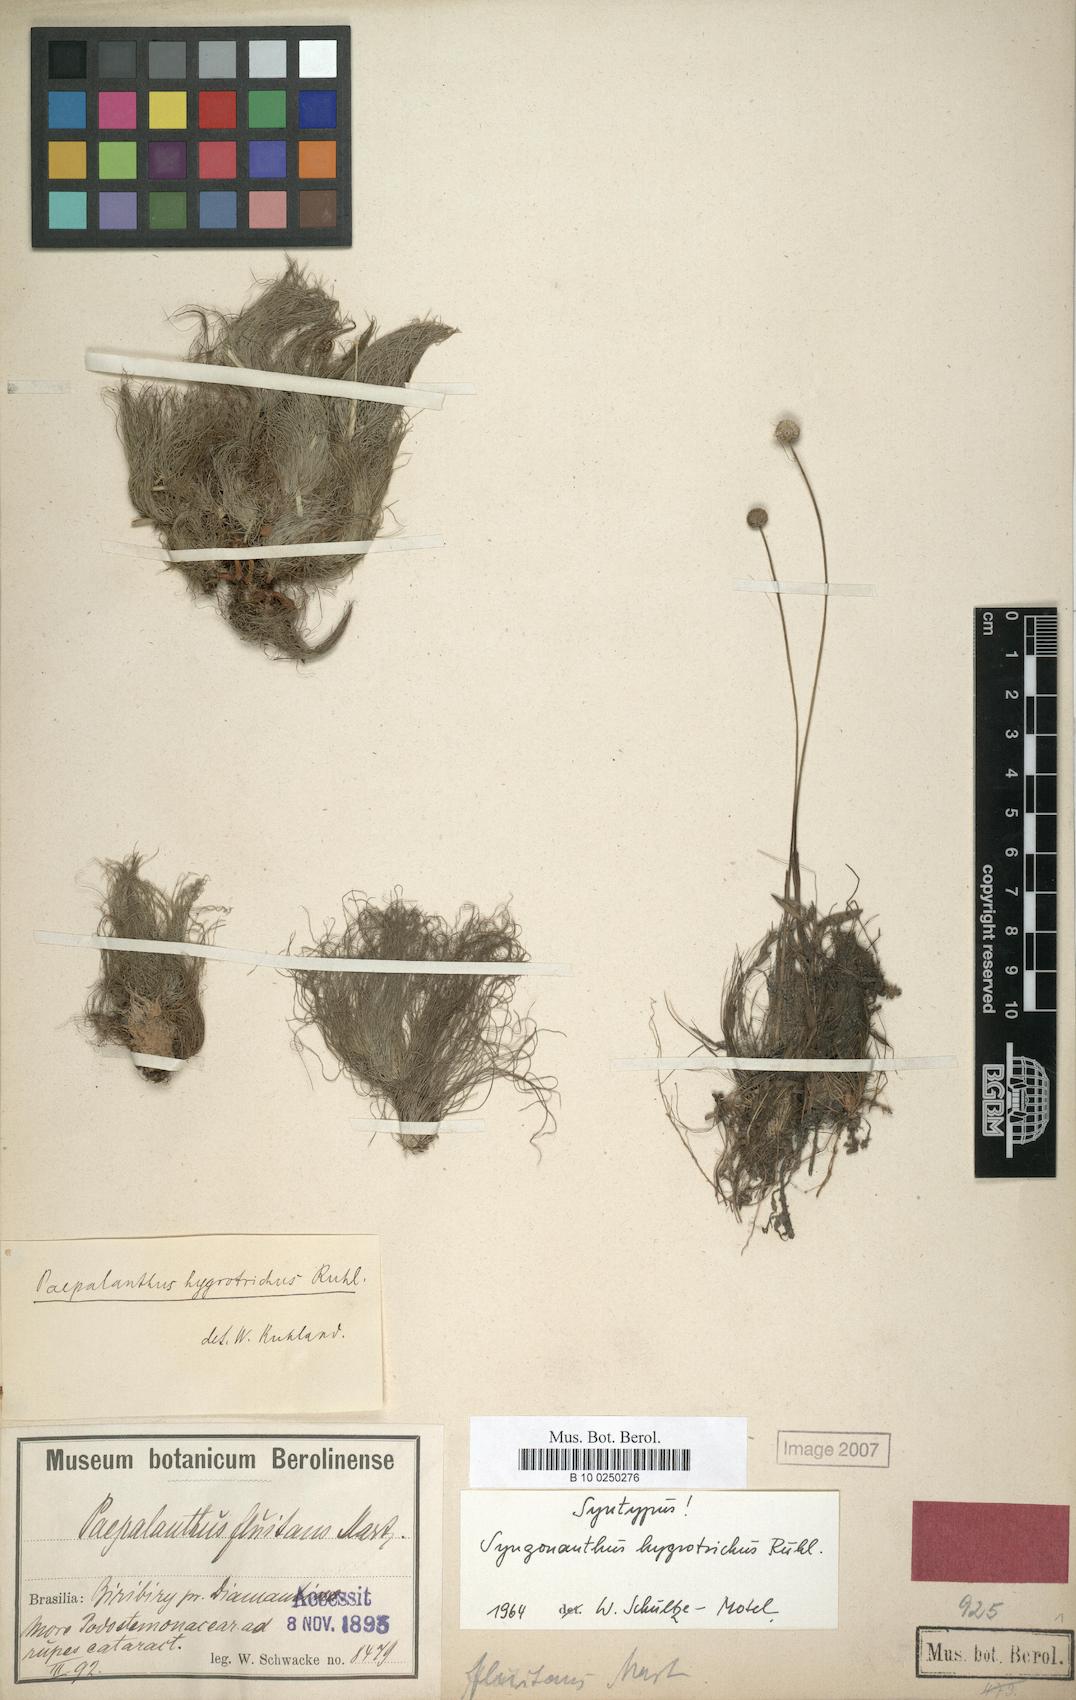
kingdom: Plantae
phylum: Tracheophyta
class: Liliopsida
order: Poales
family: Eriocaulaceae
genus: Syngonanthus
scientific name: Syngonanthus hygrotrichus
